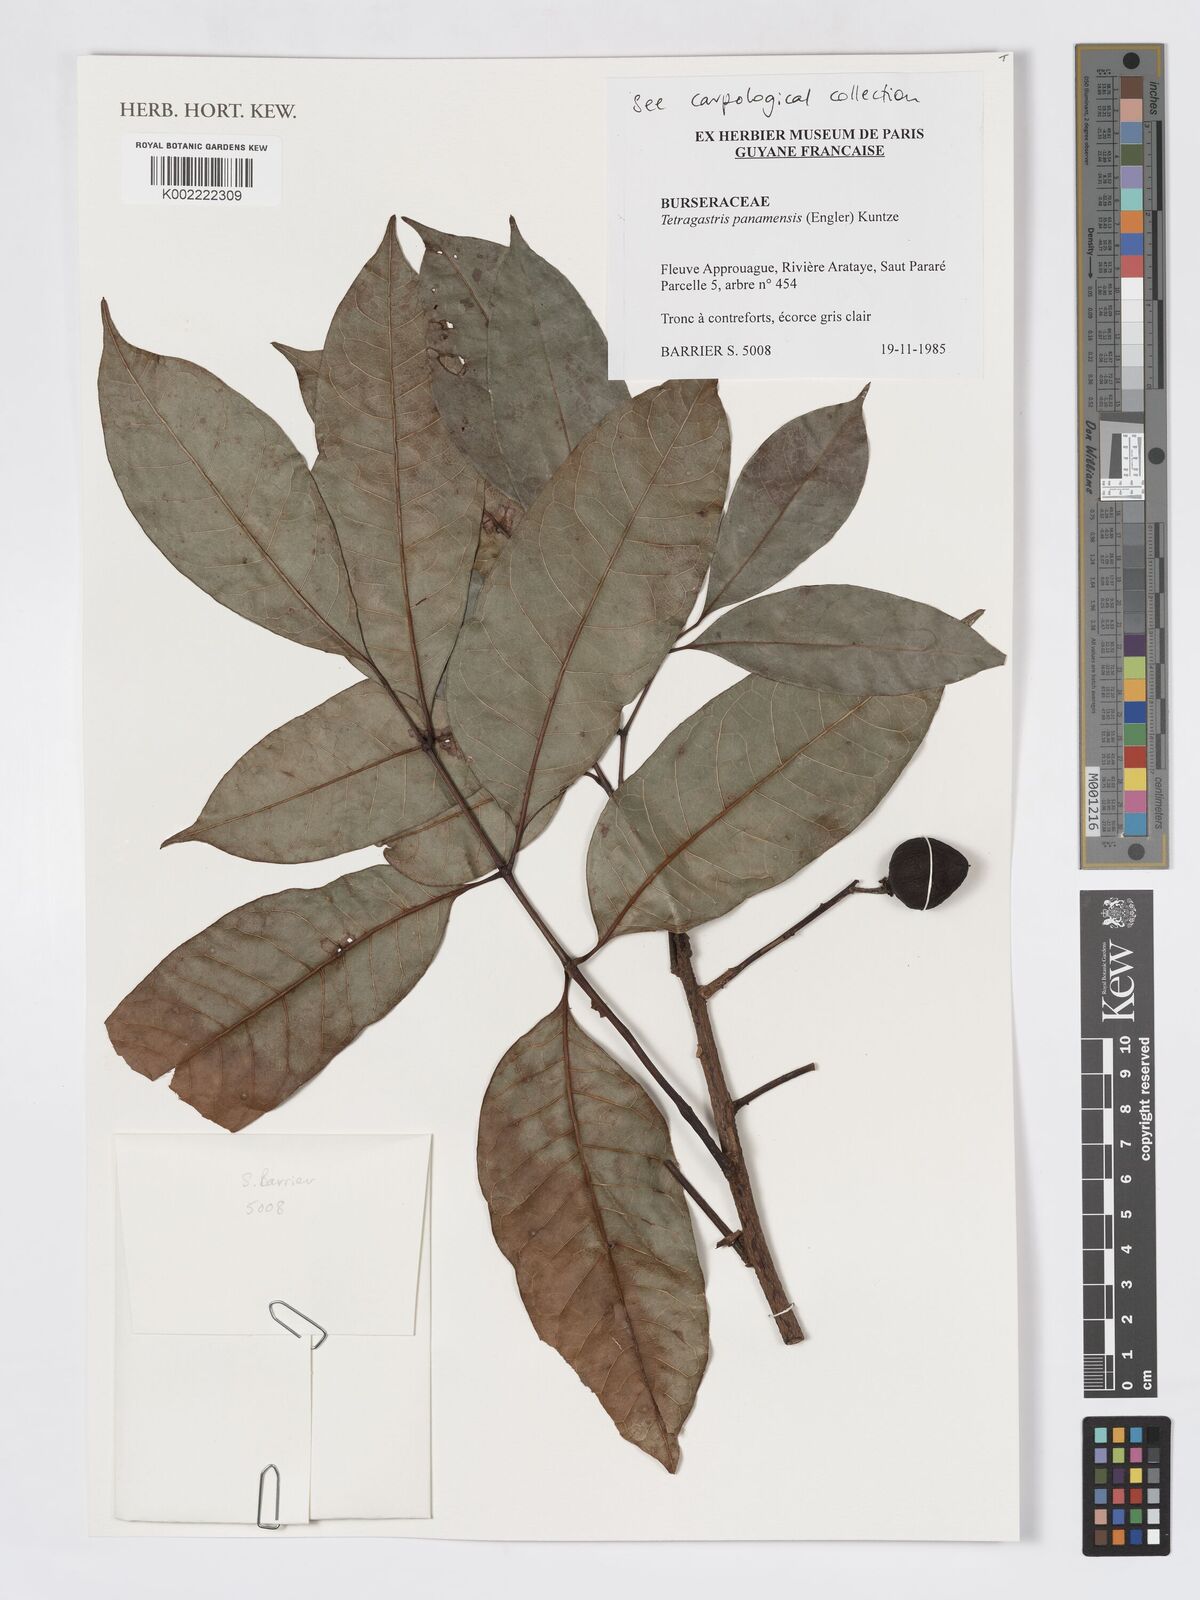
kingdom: Plantae
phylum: Tracheophyta
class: Magnoliopsida
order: Sapindales
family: Burseraceae
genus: Tetragastris
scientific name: Tetragastris panamensis
